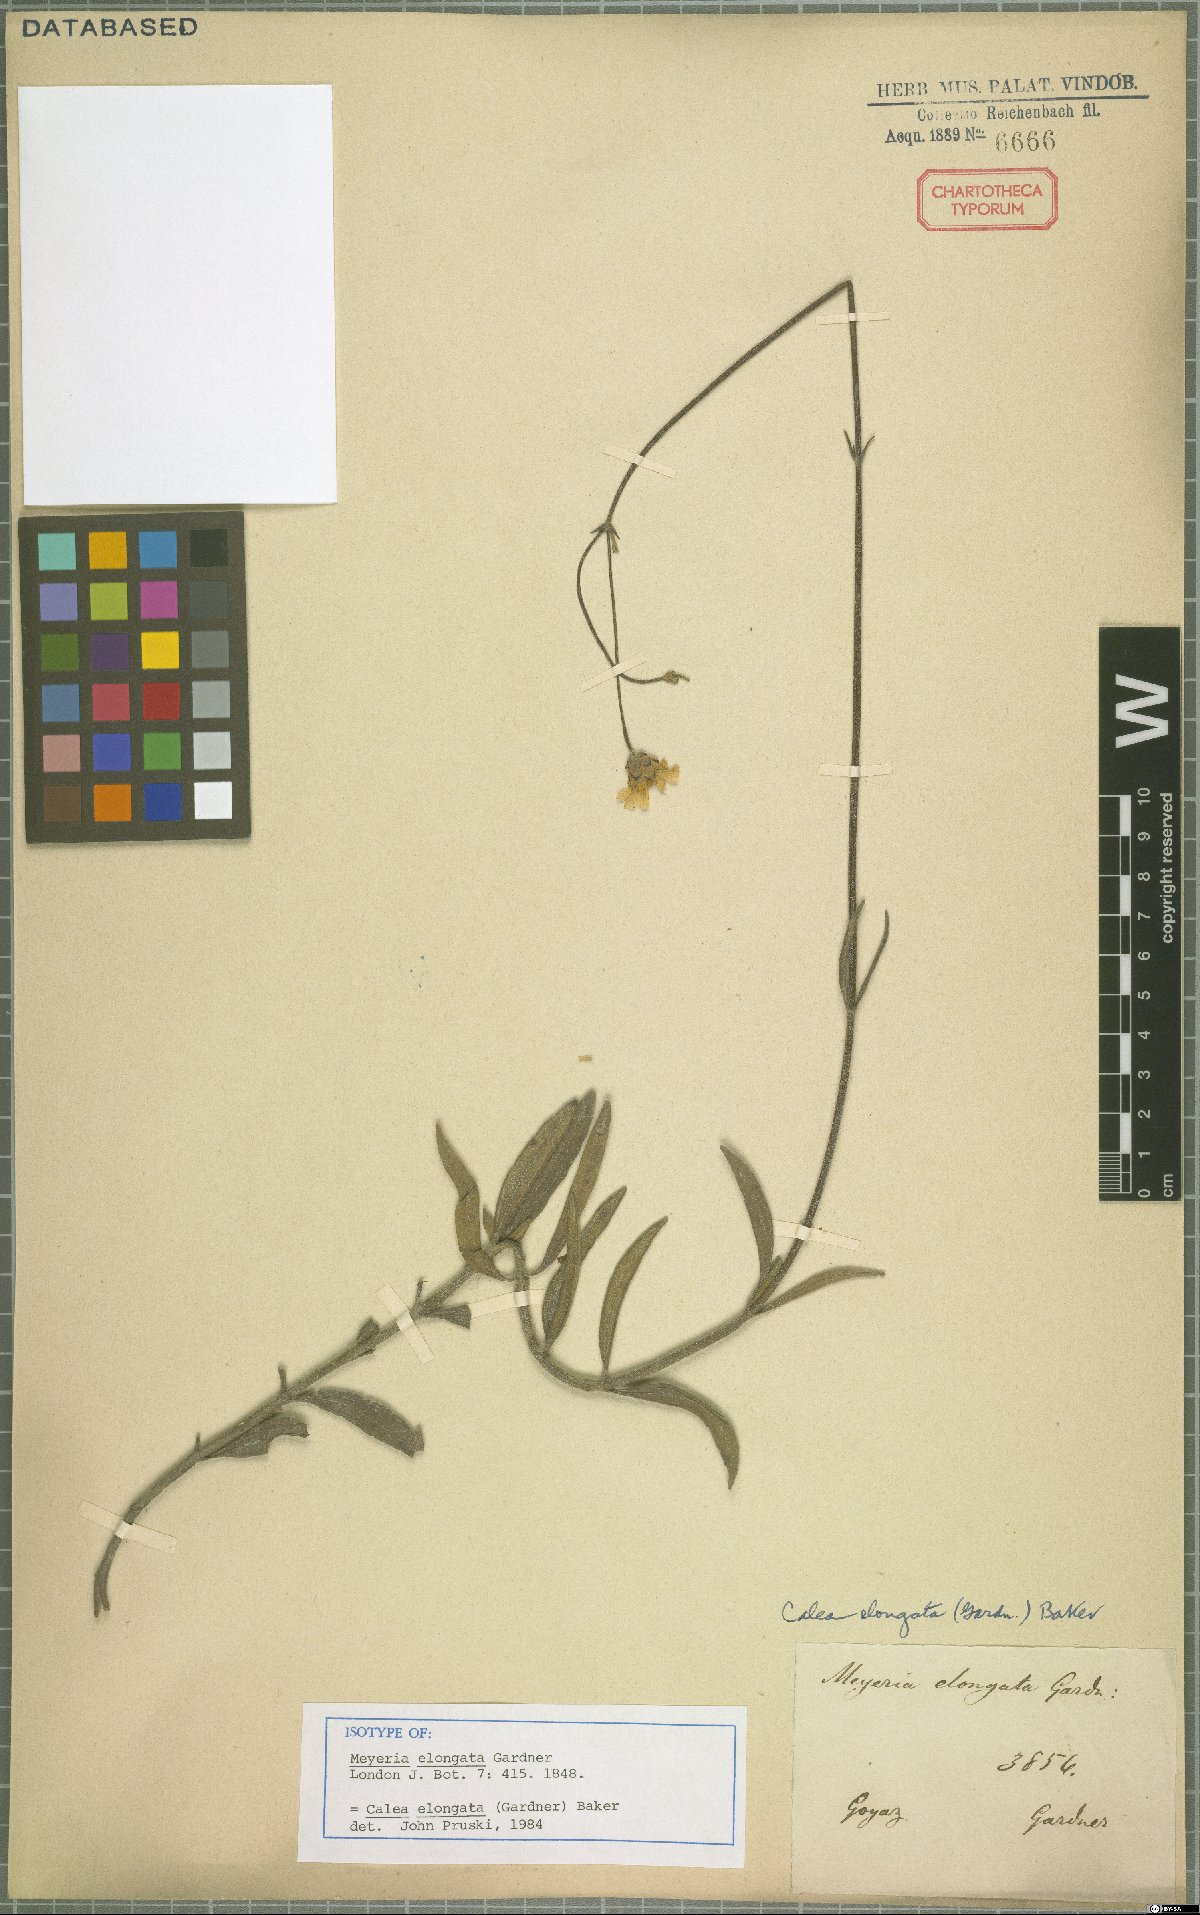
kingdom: Plantae
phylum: Tracheophyta
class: Magnoliopsida
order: Asterales
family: Asteraceae
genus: Calea
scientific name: Calea elongata
